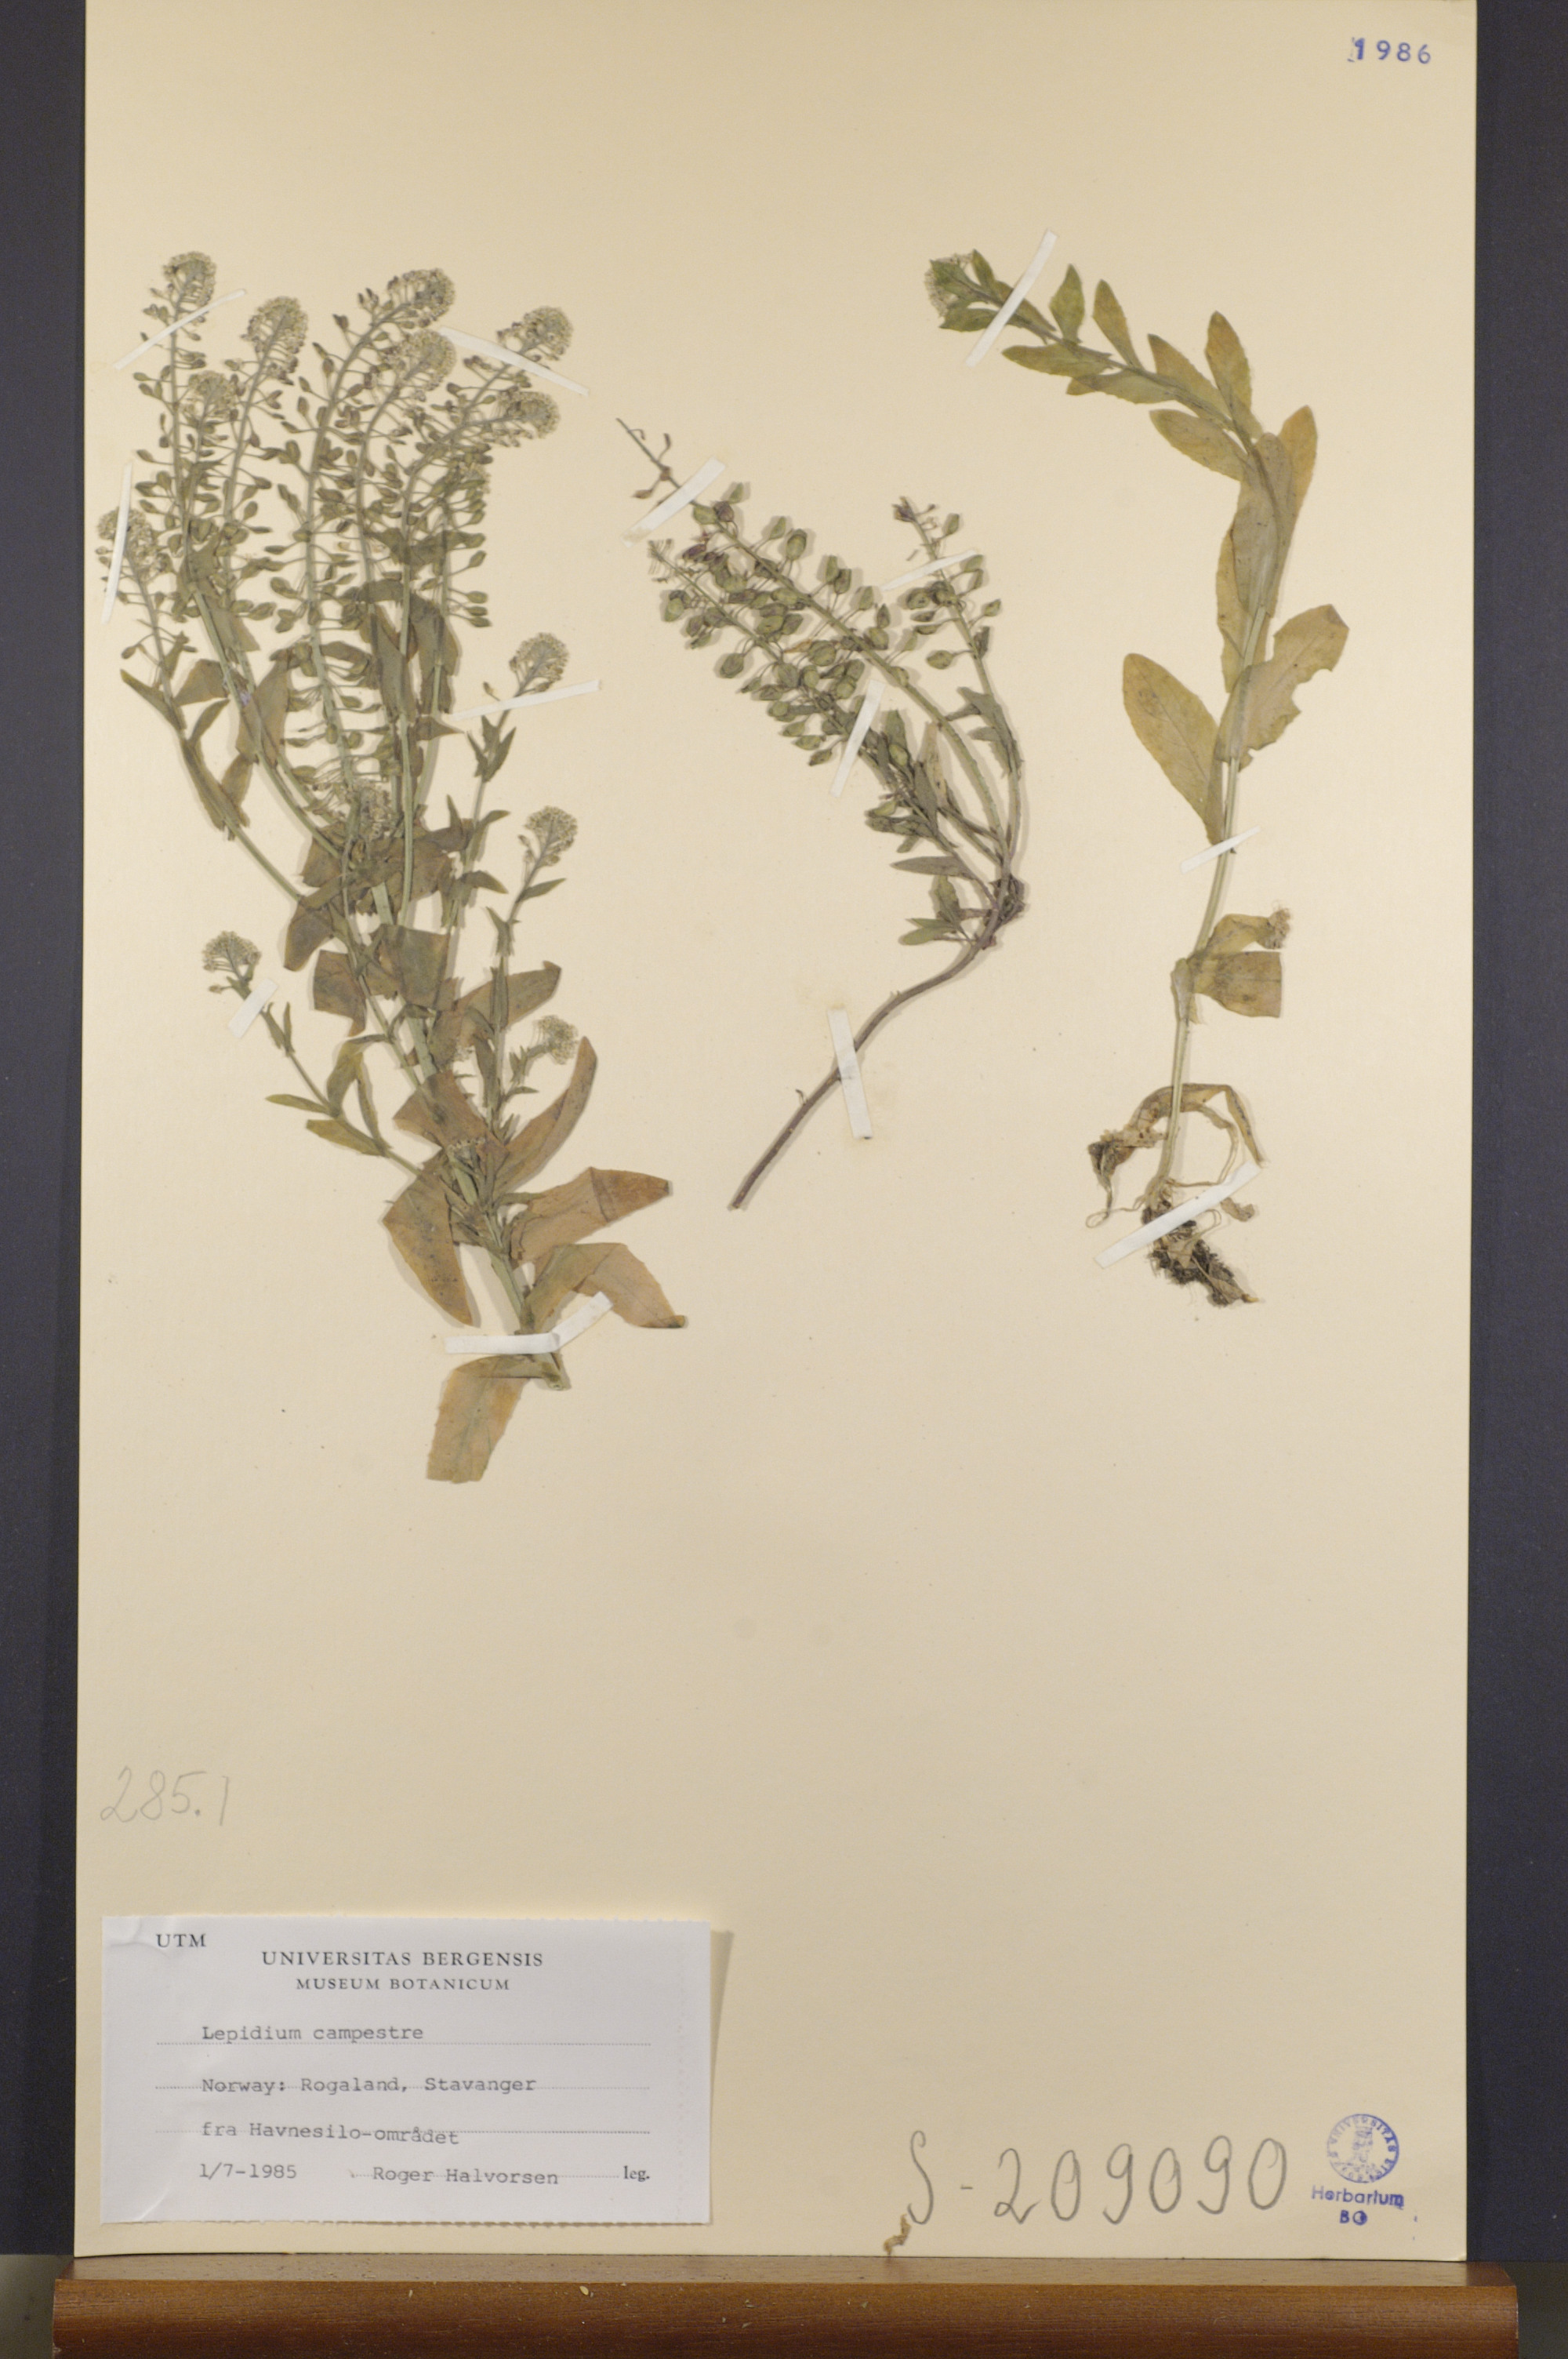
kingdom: Plantae
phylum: Tracheophyta
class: Magnoliopsida
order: Brassicales
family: Brassicaceae
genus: Lepidium
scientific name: Lepidium campestre
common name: Field pepperwort
